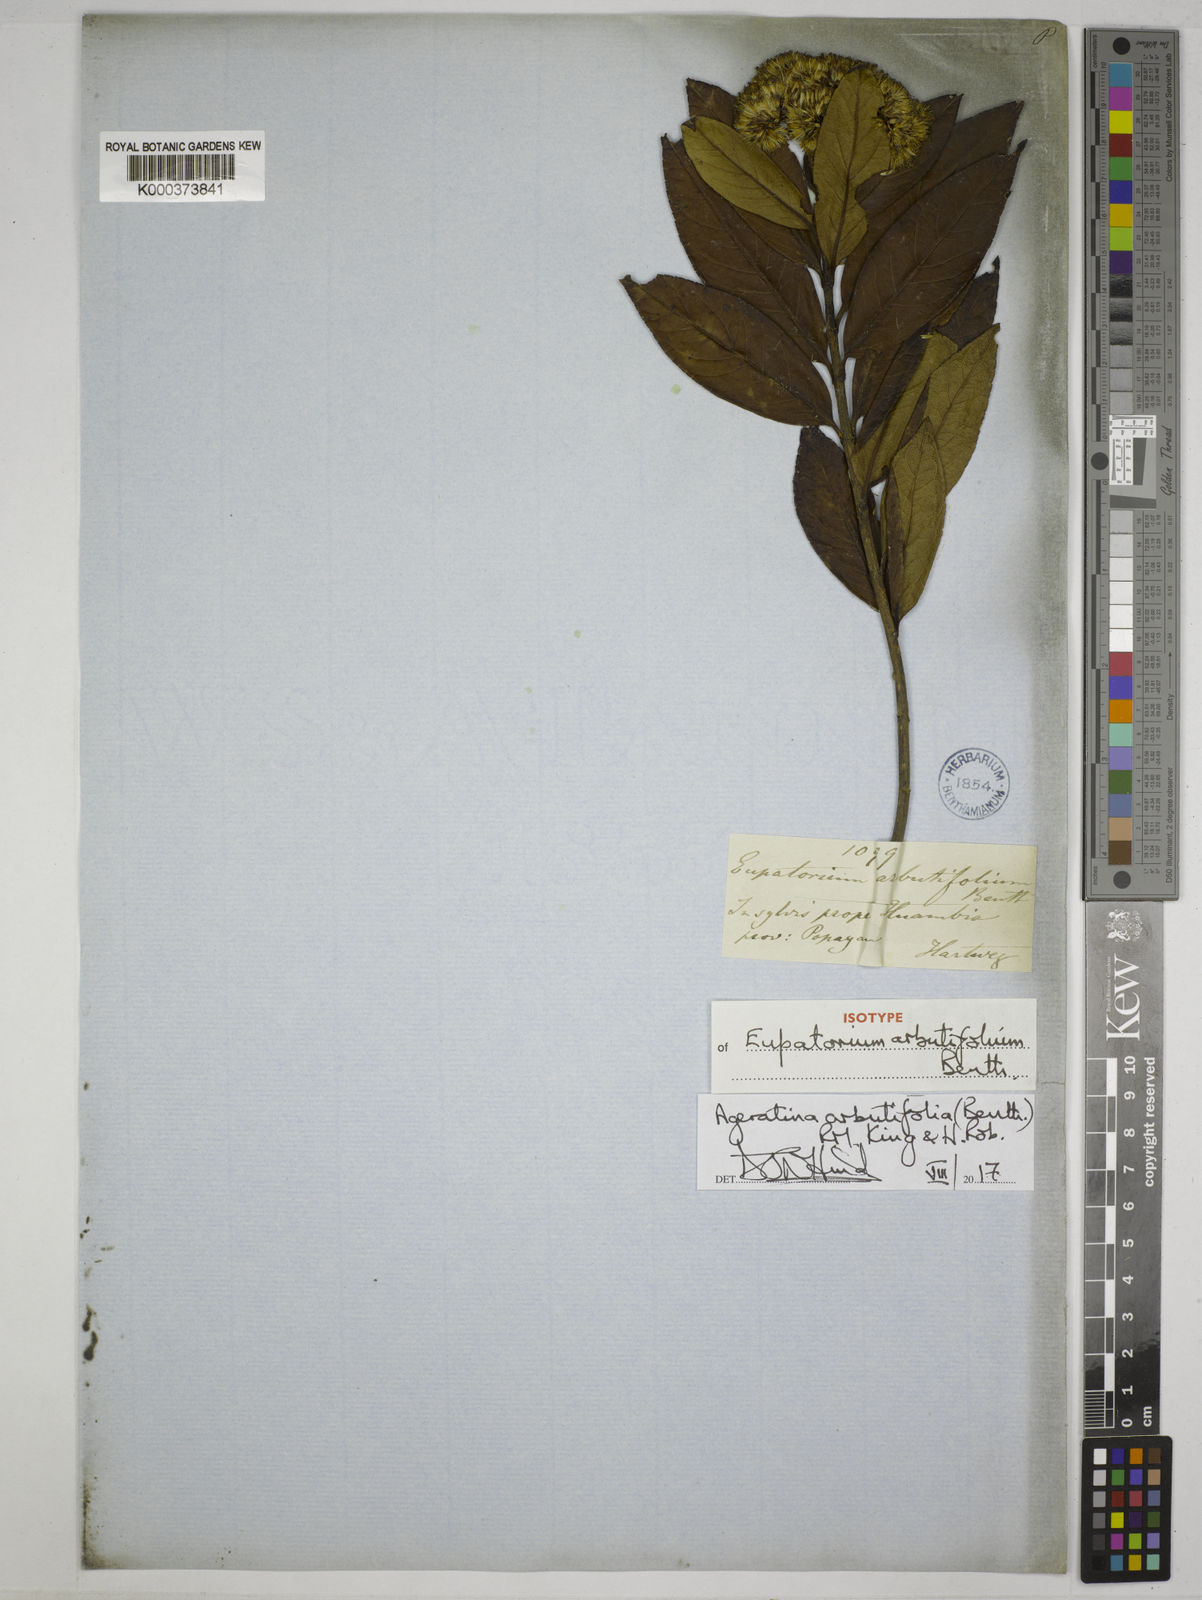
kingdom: Plantae
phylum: Tracheophyta
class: Magnoliopsida
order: Asterales
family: Asteraceae
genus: Ageratina
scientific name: Ageratina arbutifolia
